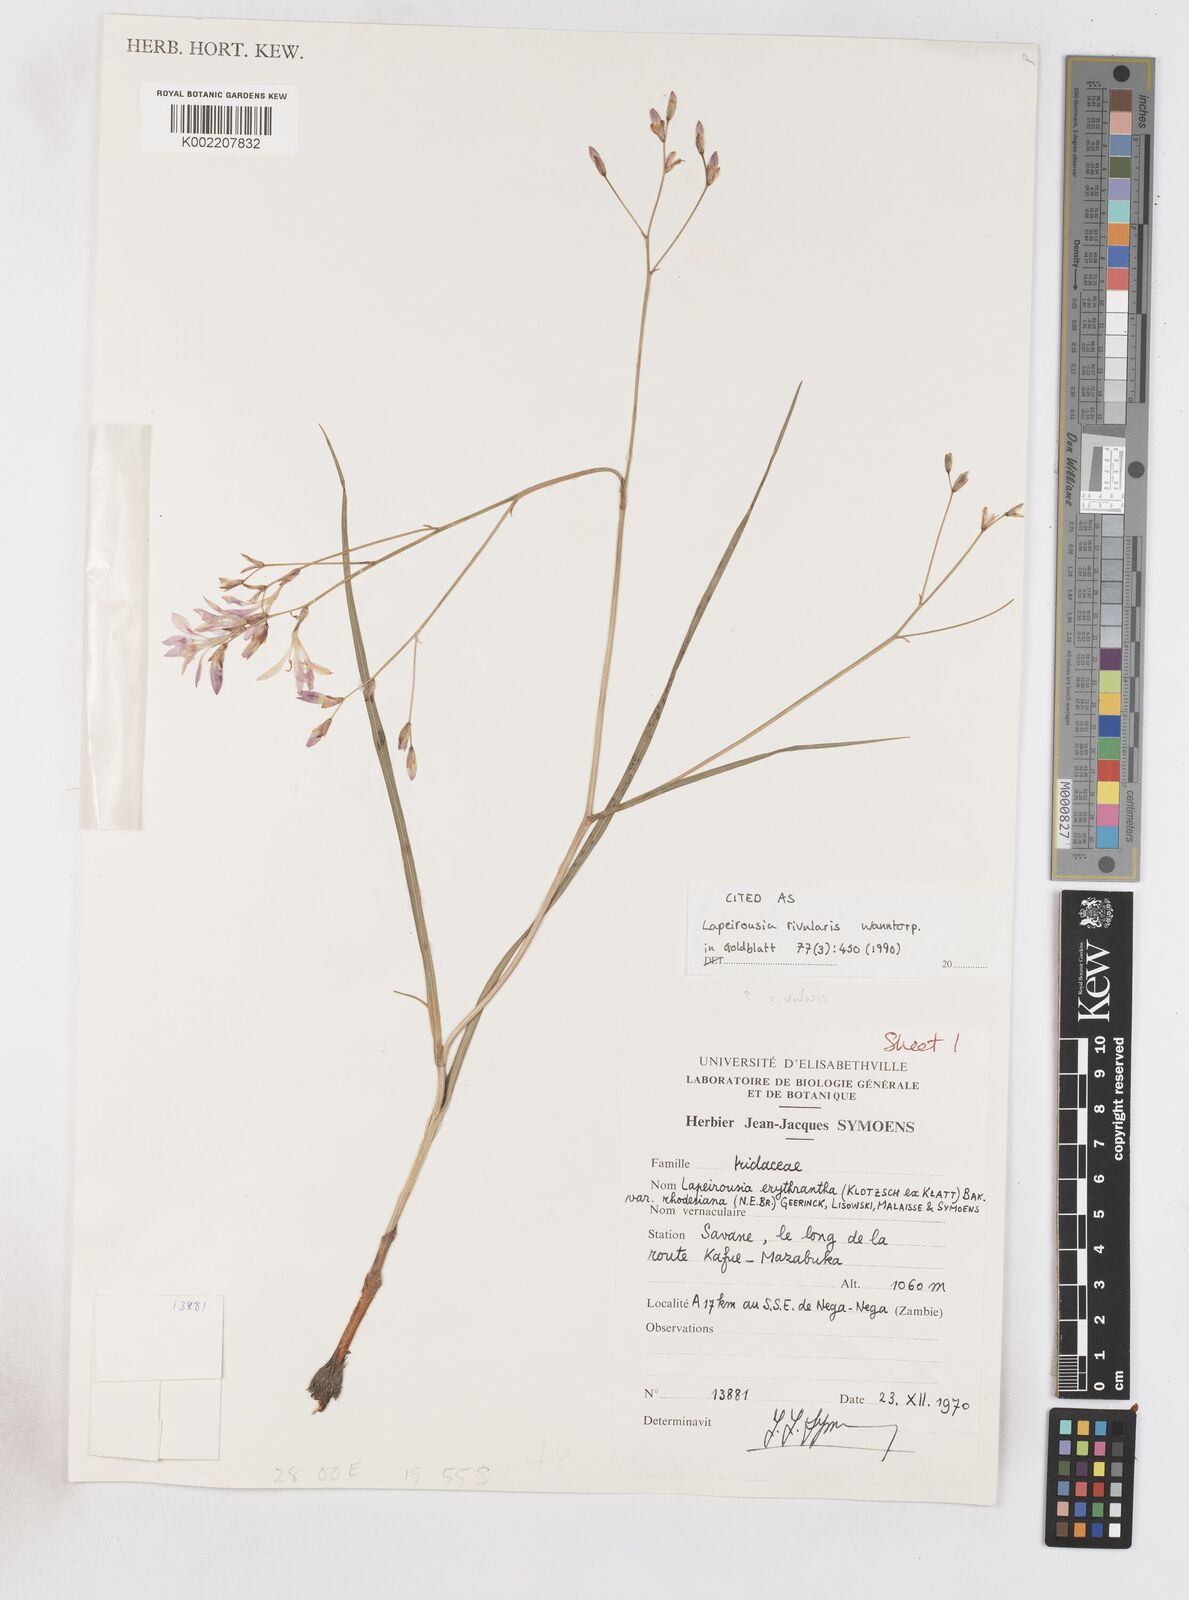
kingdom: Plantae
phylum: Tracheophyta
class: Liliopsida
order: Asparagales
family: Iridaceae
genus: Afrosolen
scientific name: Afrosolen rivularis
